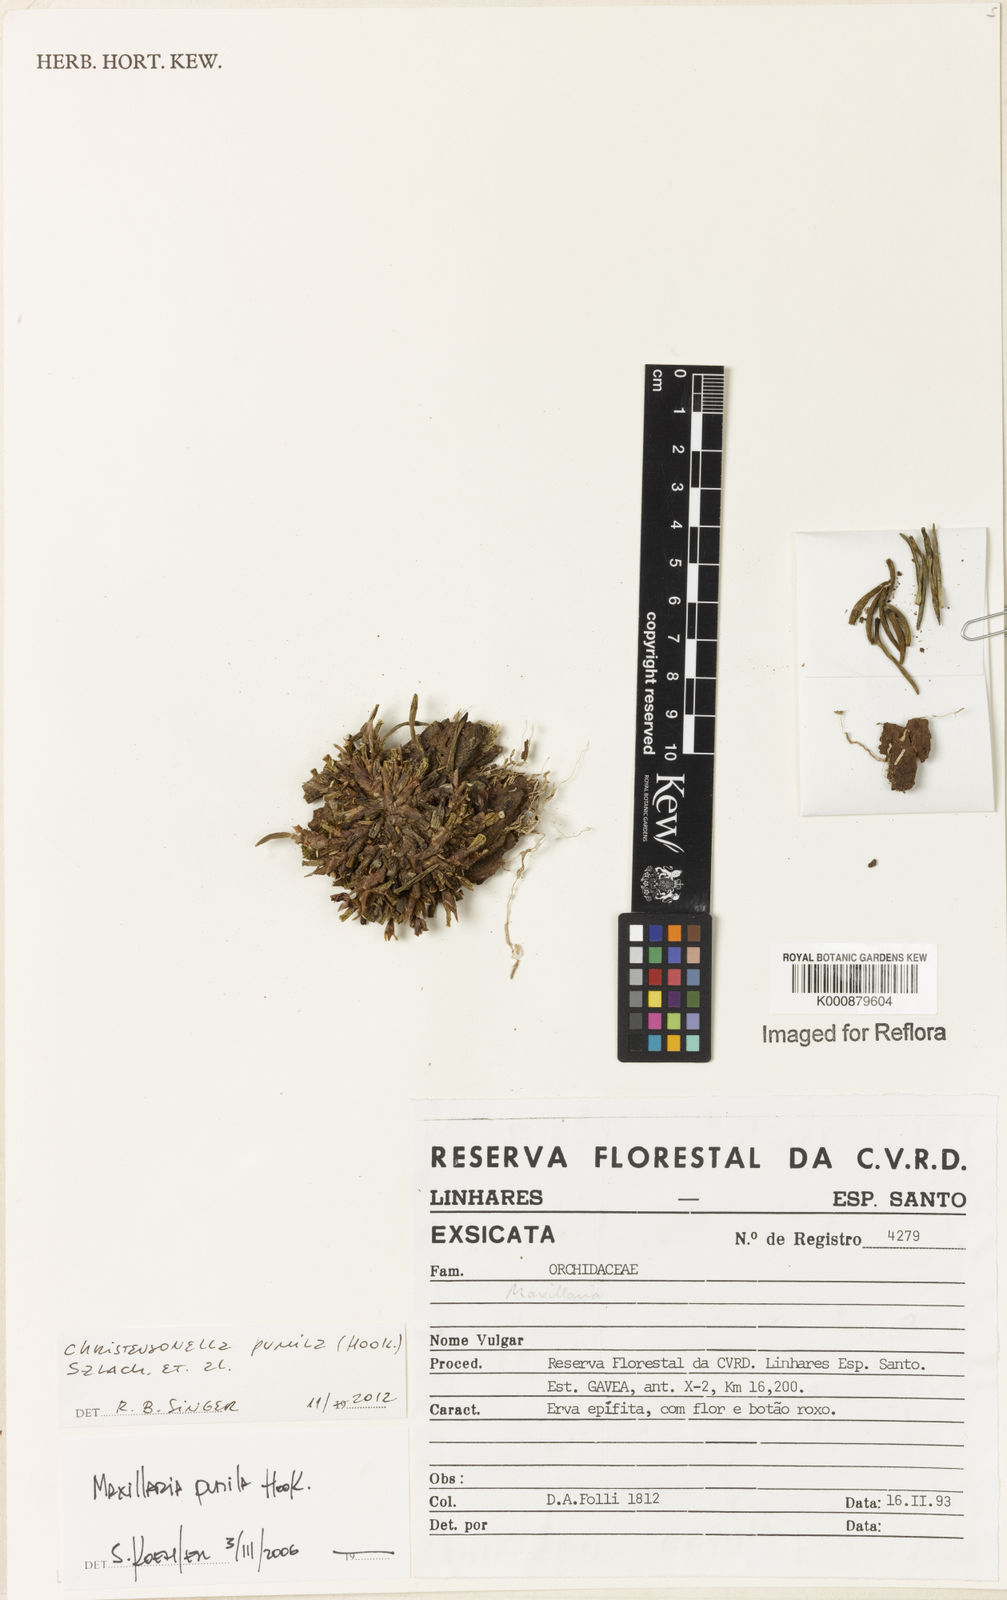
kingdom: Plantae
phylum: Tracheophyta
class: Liliopsida
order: Asparagales
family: Orchidaceae
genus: Maxillaria
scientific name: Maxillaria pumila
